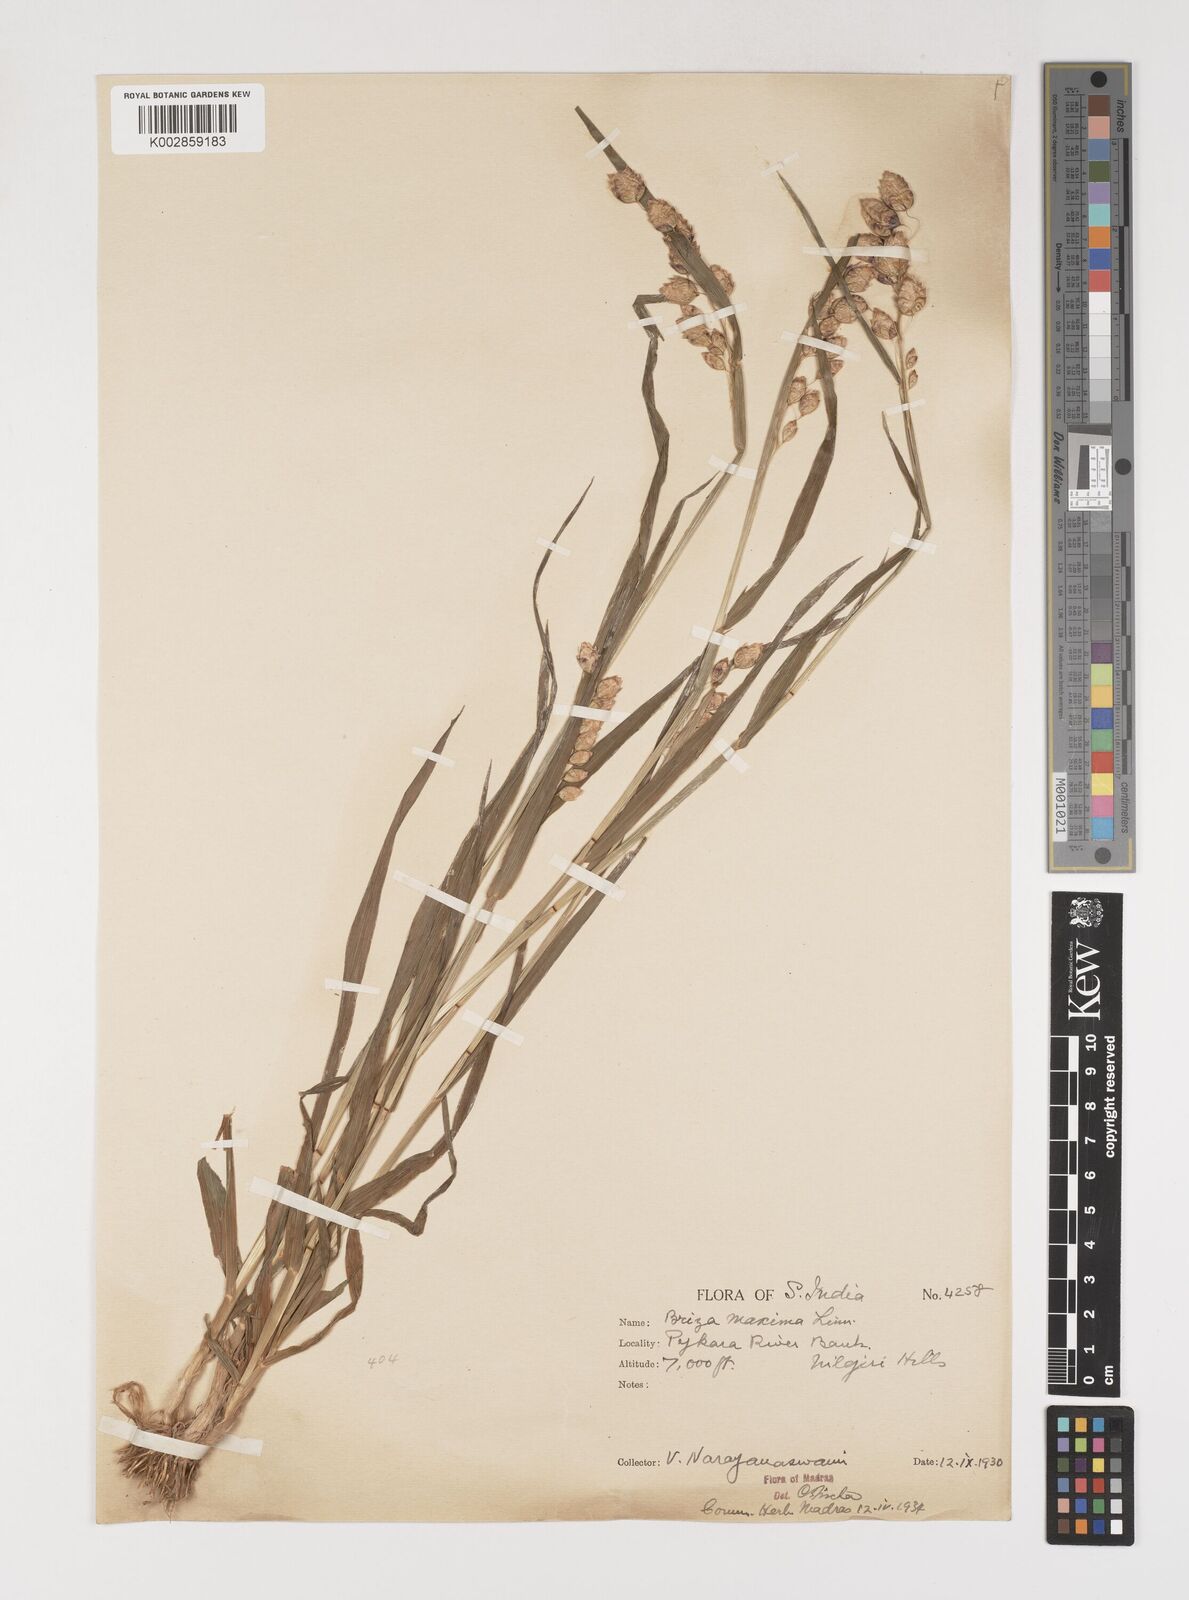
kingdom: Plantae
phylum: Tracheophyta
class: Liliopsida
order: Poales
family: Poaceae
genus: Briza
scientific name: Briza maxima
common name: Big quakinggrass
